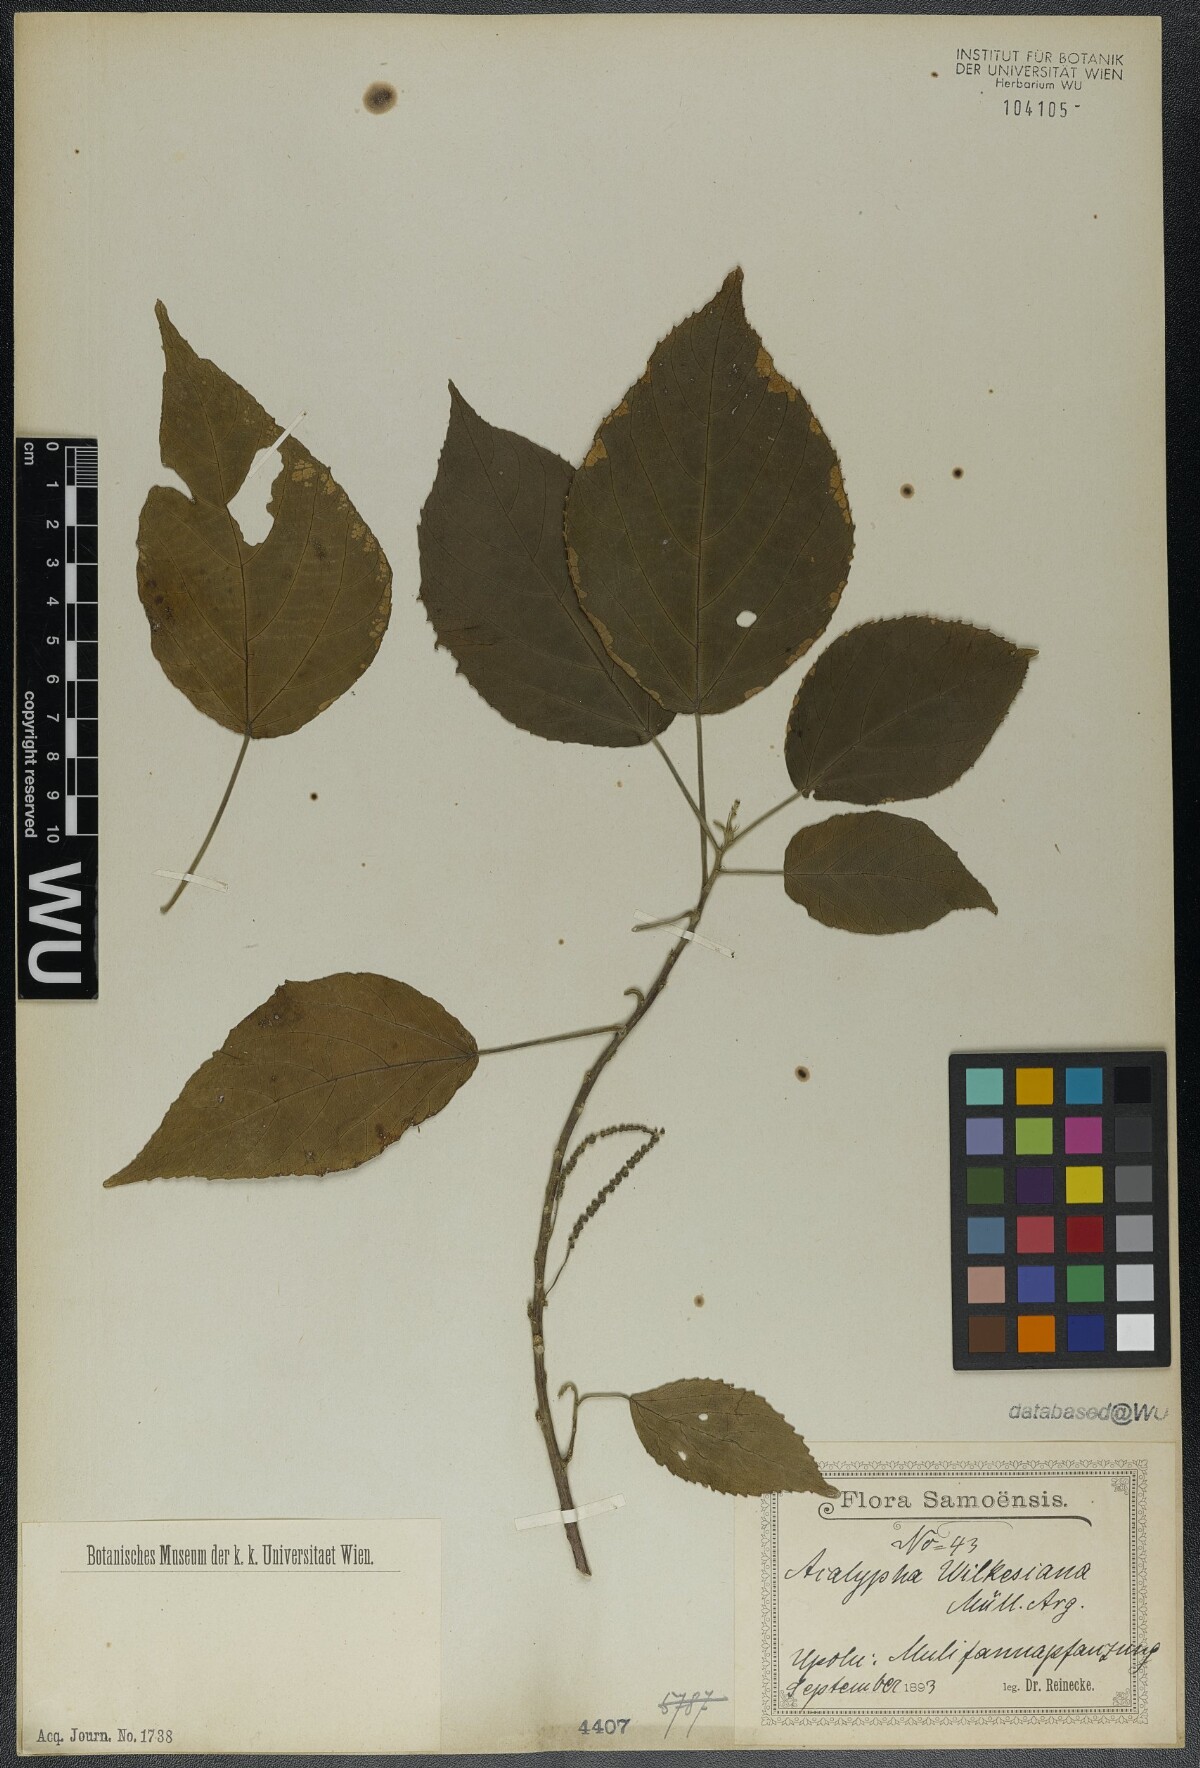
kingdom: Plantae
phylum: Tracheophyta
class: Magnoliopsida
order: Malpighiales
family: Euphorbiaceae
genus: Acalypha
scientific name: Acalypha wilkesiana
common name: Jacob's coat
